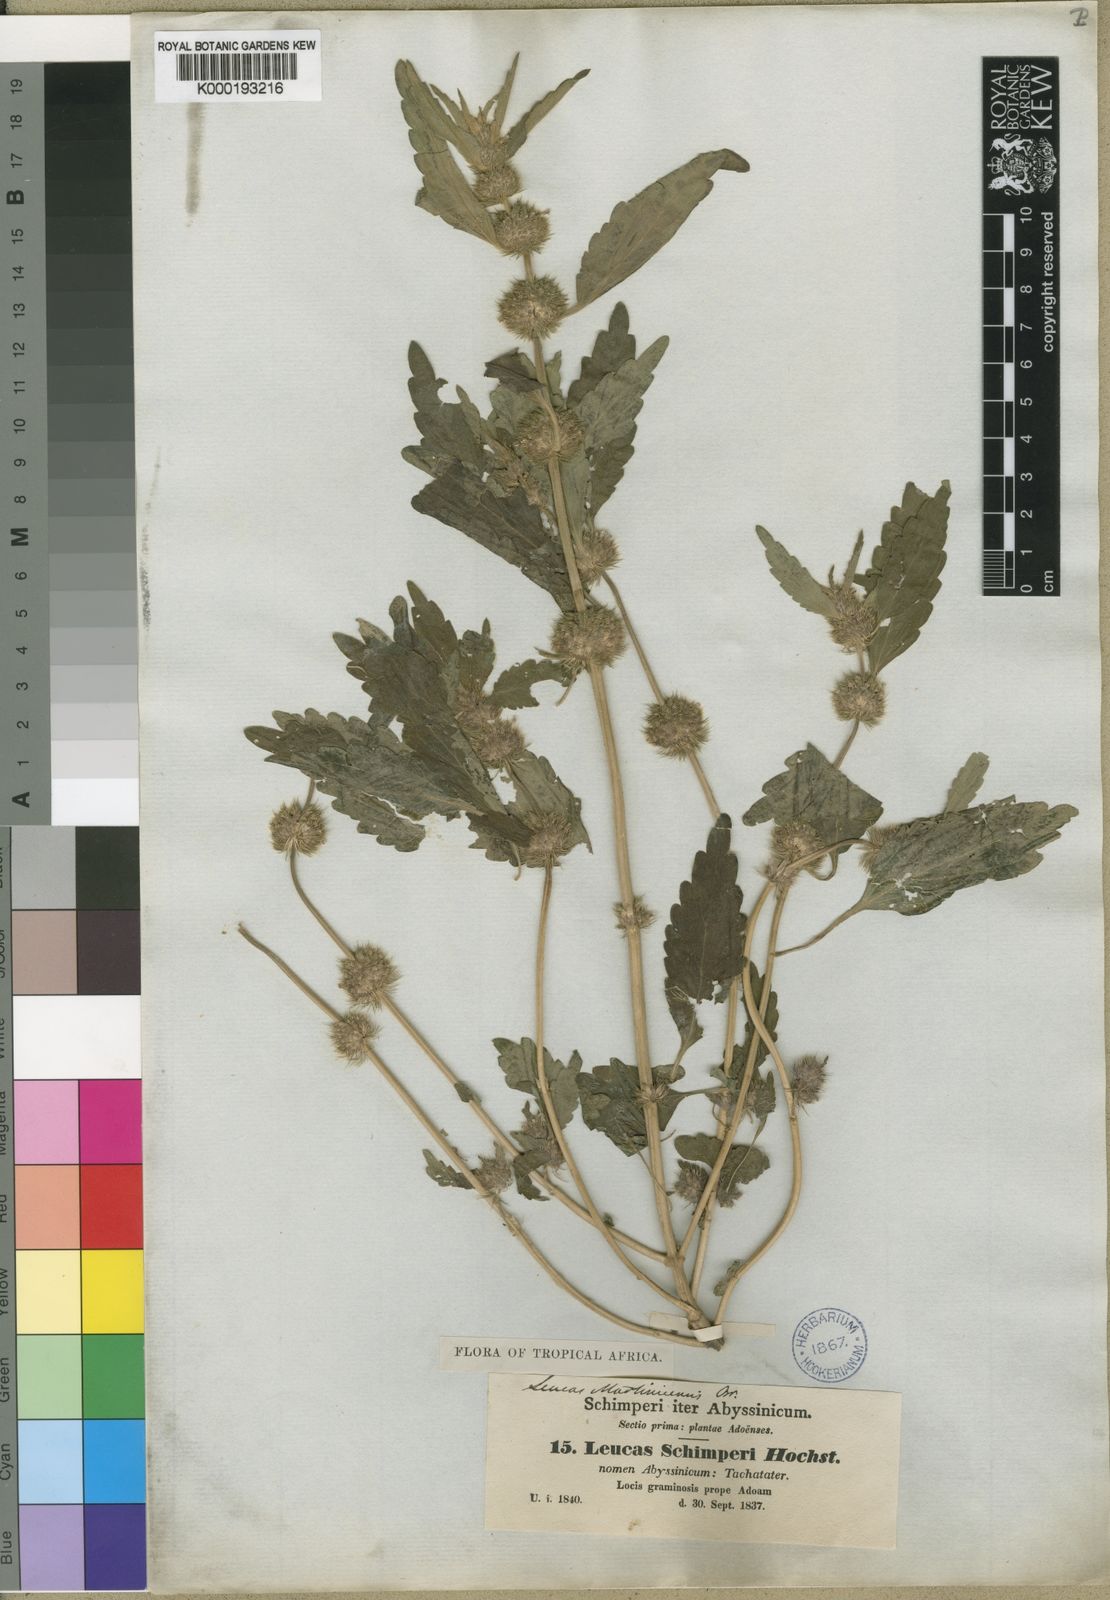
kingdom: Plantae
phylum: Tracheophyta
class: Magnoliopsida
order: Lamiales
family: Lamiaceae
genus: Leucas
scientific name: Leucas martinicensis
